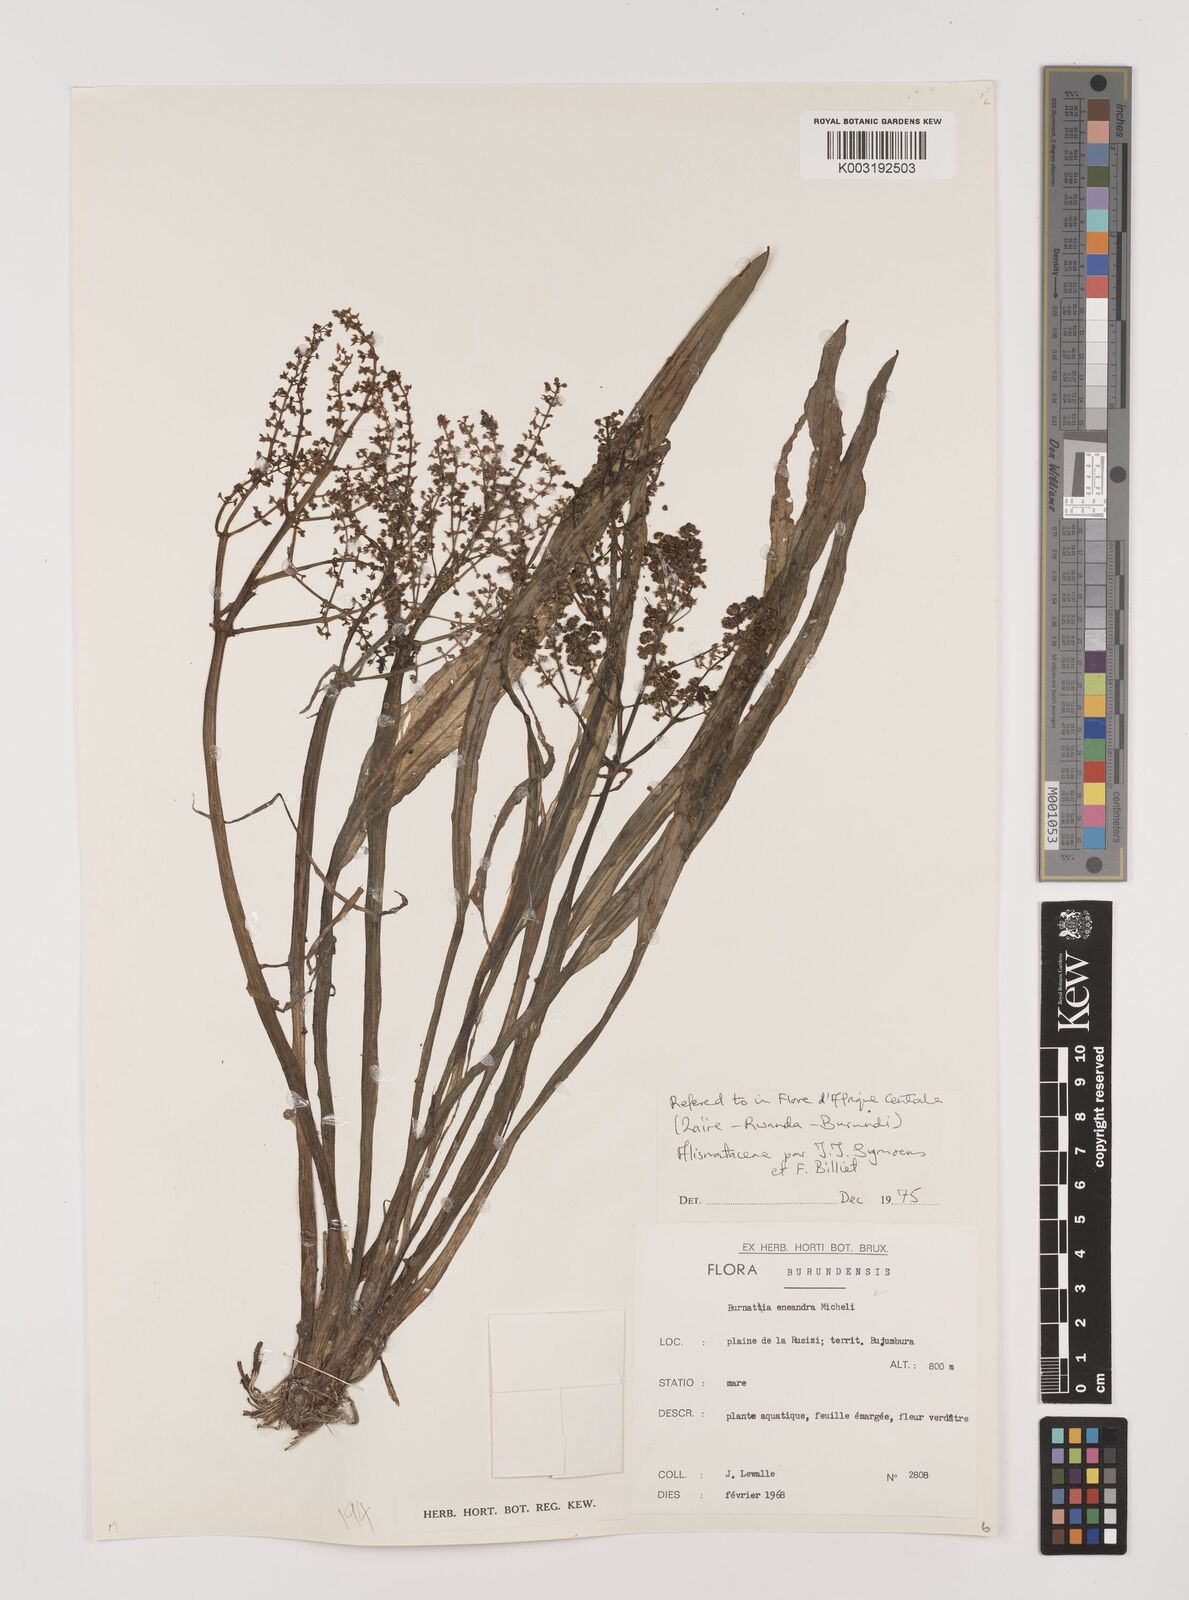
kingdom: Plantae
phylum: Tracheophyta
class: Liliopsida
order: Alismatales
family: Alismataceae
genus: Burnatia
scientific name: Burnatia enneandra
